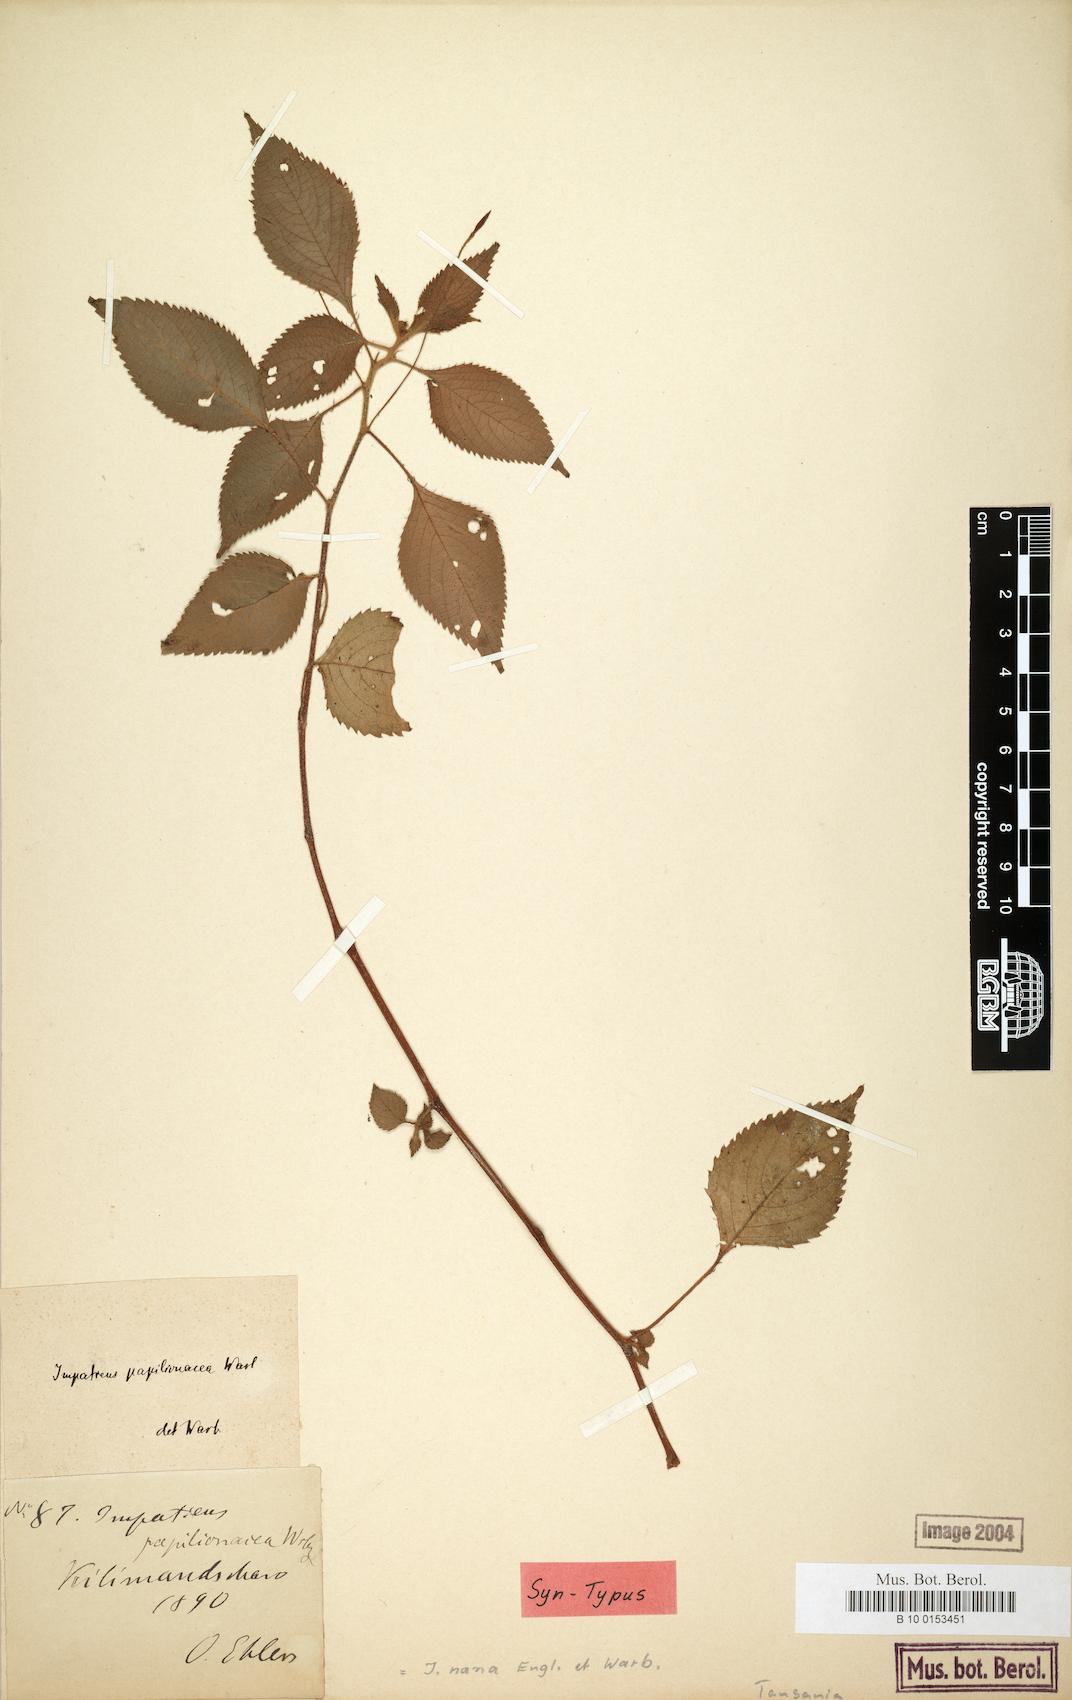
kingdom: Plantae
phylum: Tracheophyta
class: Magnoliopsida
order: Ericales
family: Balsaminaceae
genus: Impatiens
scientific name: Impatiens nana
